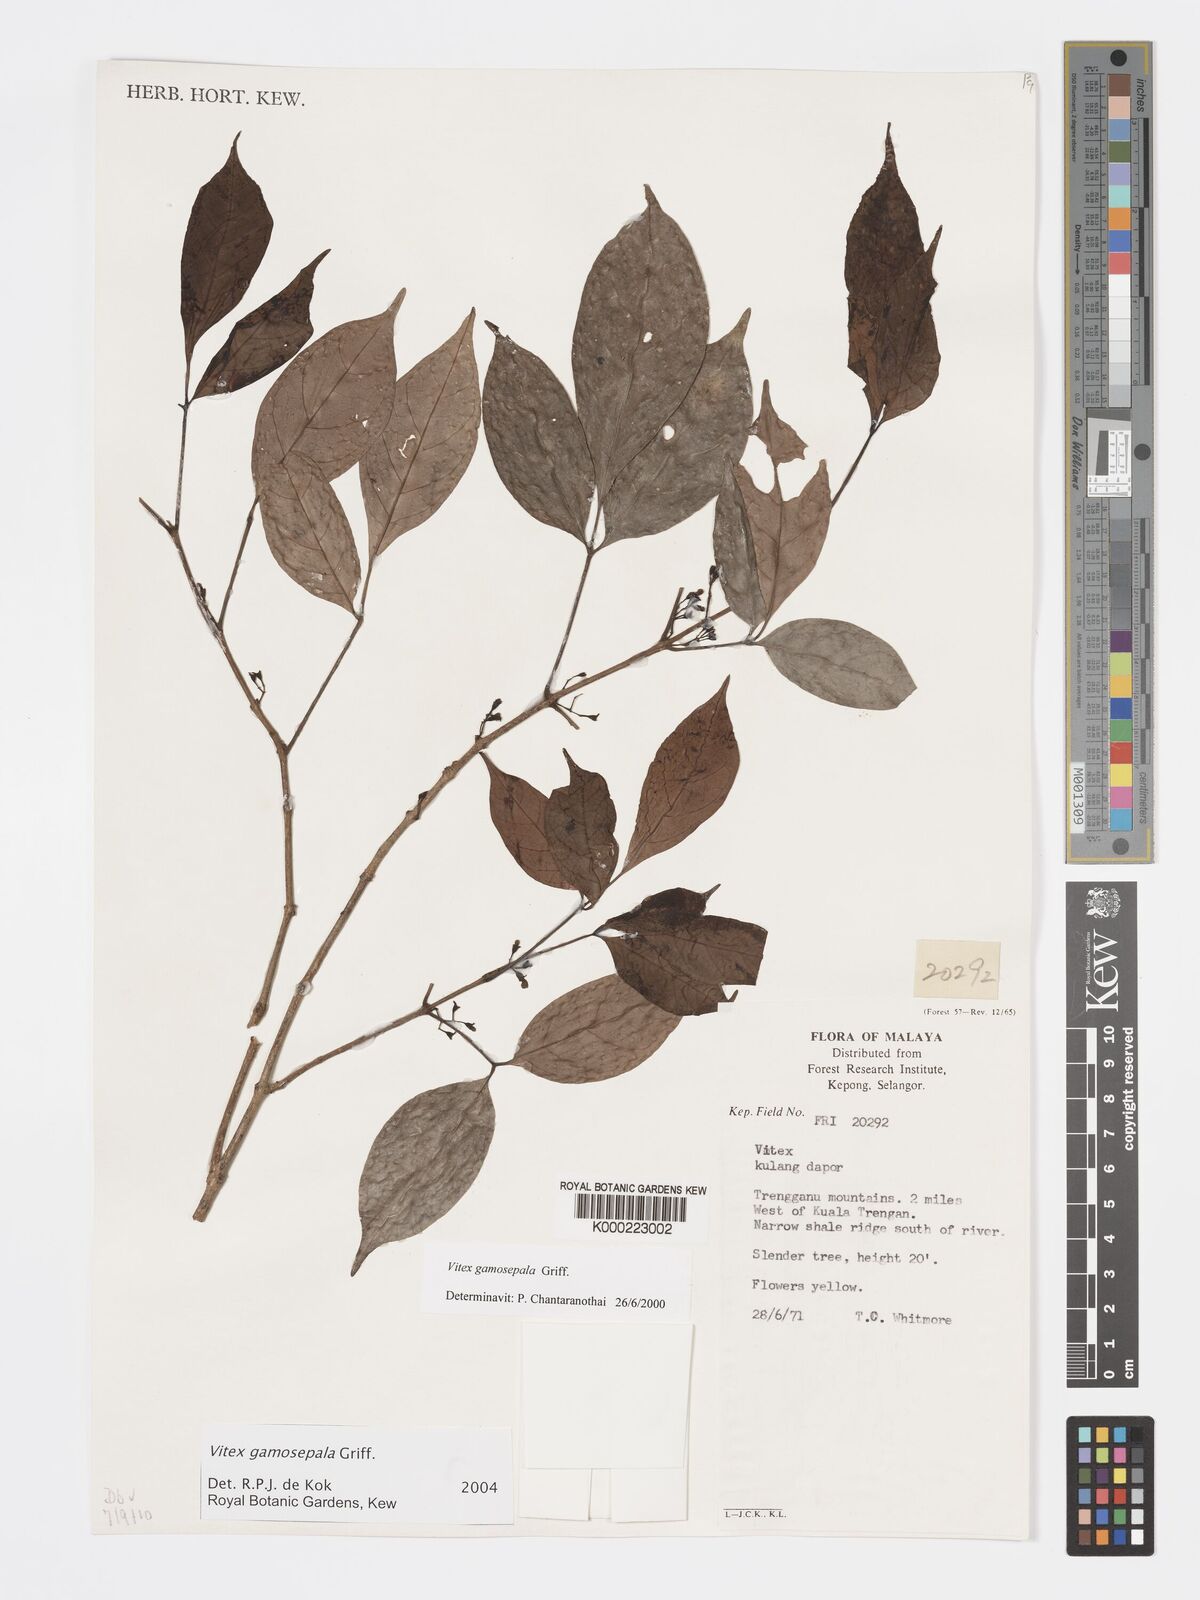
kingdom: Plantae
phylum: Tracheophyta
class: Magnoliopsida
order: Lamiales
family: Lamiaceae
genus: Vitex
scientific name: Vitex gamosepala
